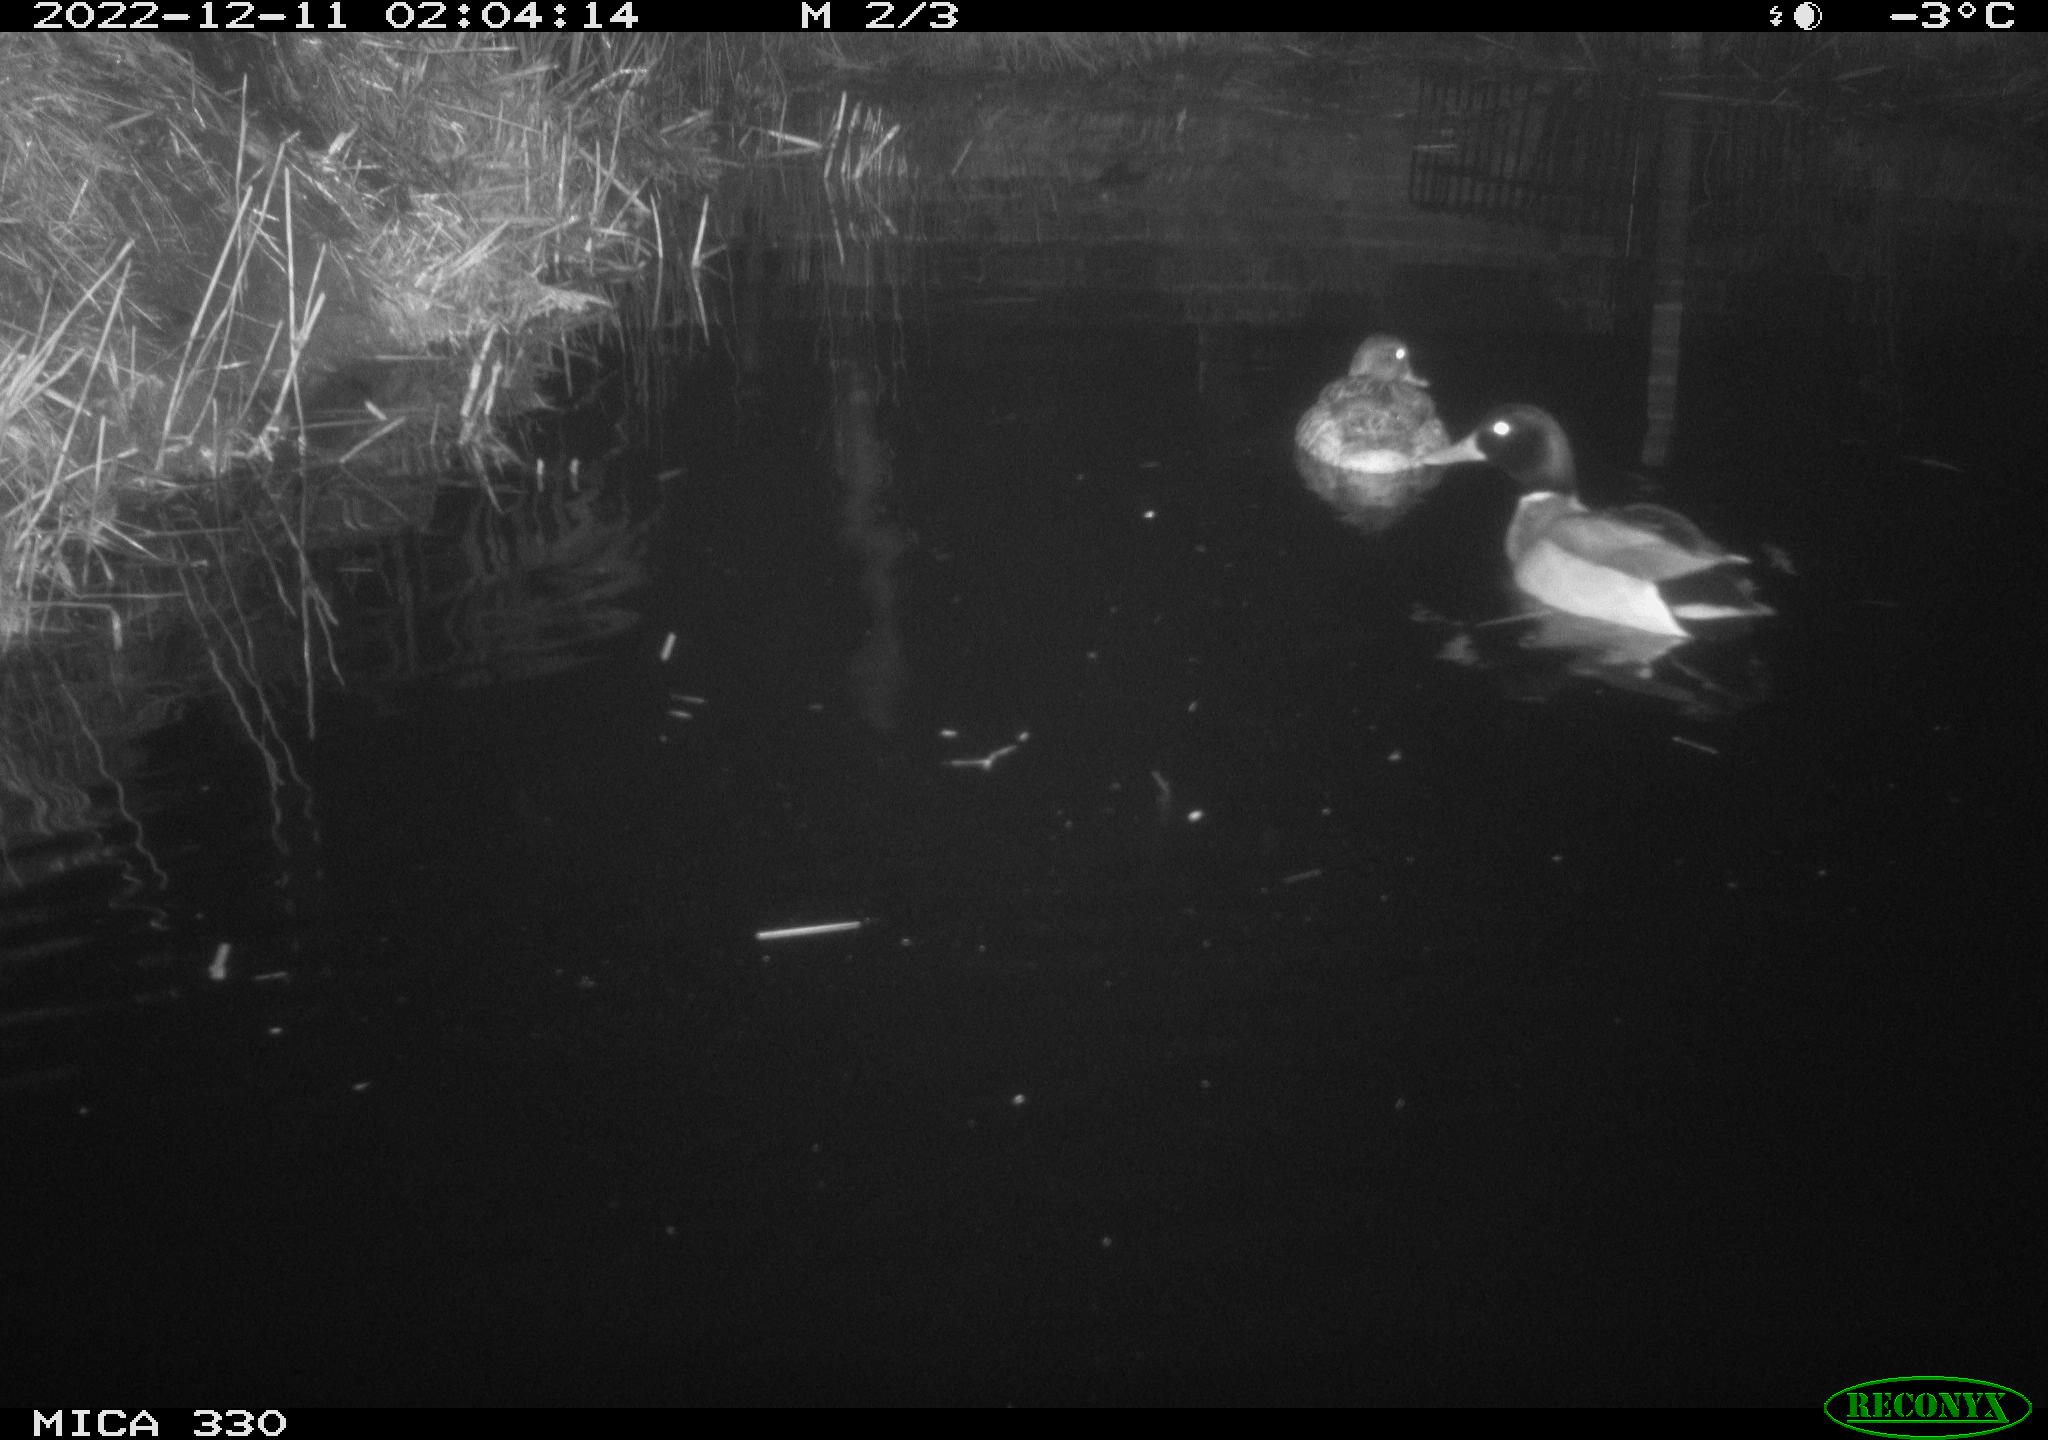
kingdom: Animalia
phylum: Chordata
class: Aves
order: Anseriformes
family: Anatidae
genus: Anas
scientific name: Anas
